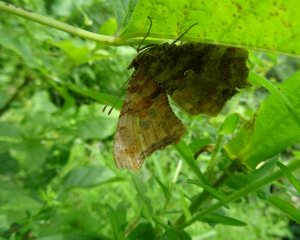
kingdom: Animalia
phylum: Arthropoda
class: Insecta
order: Lepidoptera
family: Nymphalidae
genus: Polygonia
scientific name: Polygonia comma
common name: Eastern Comma
